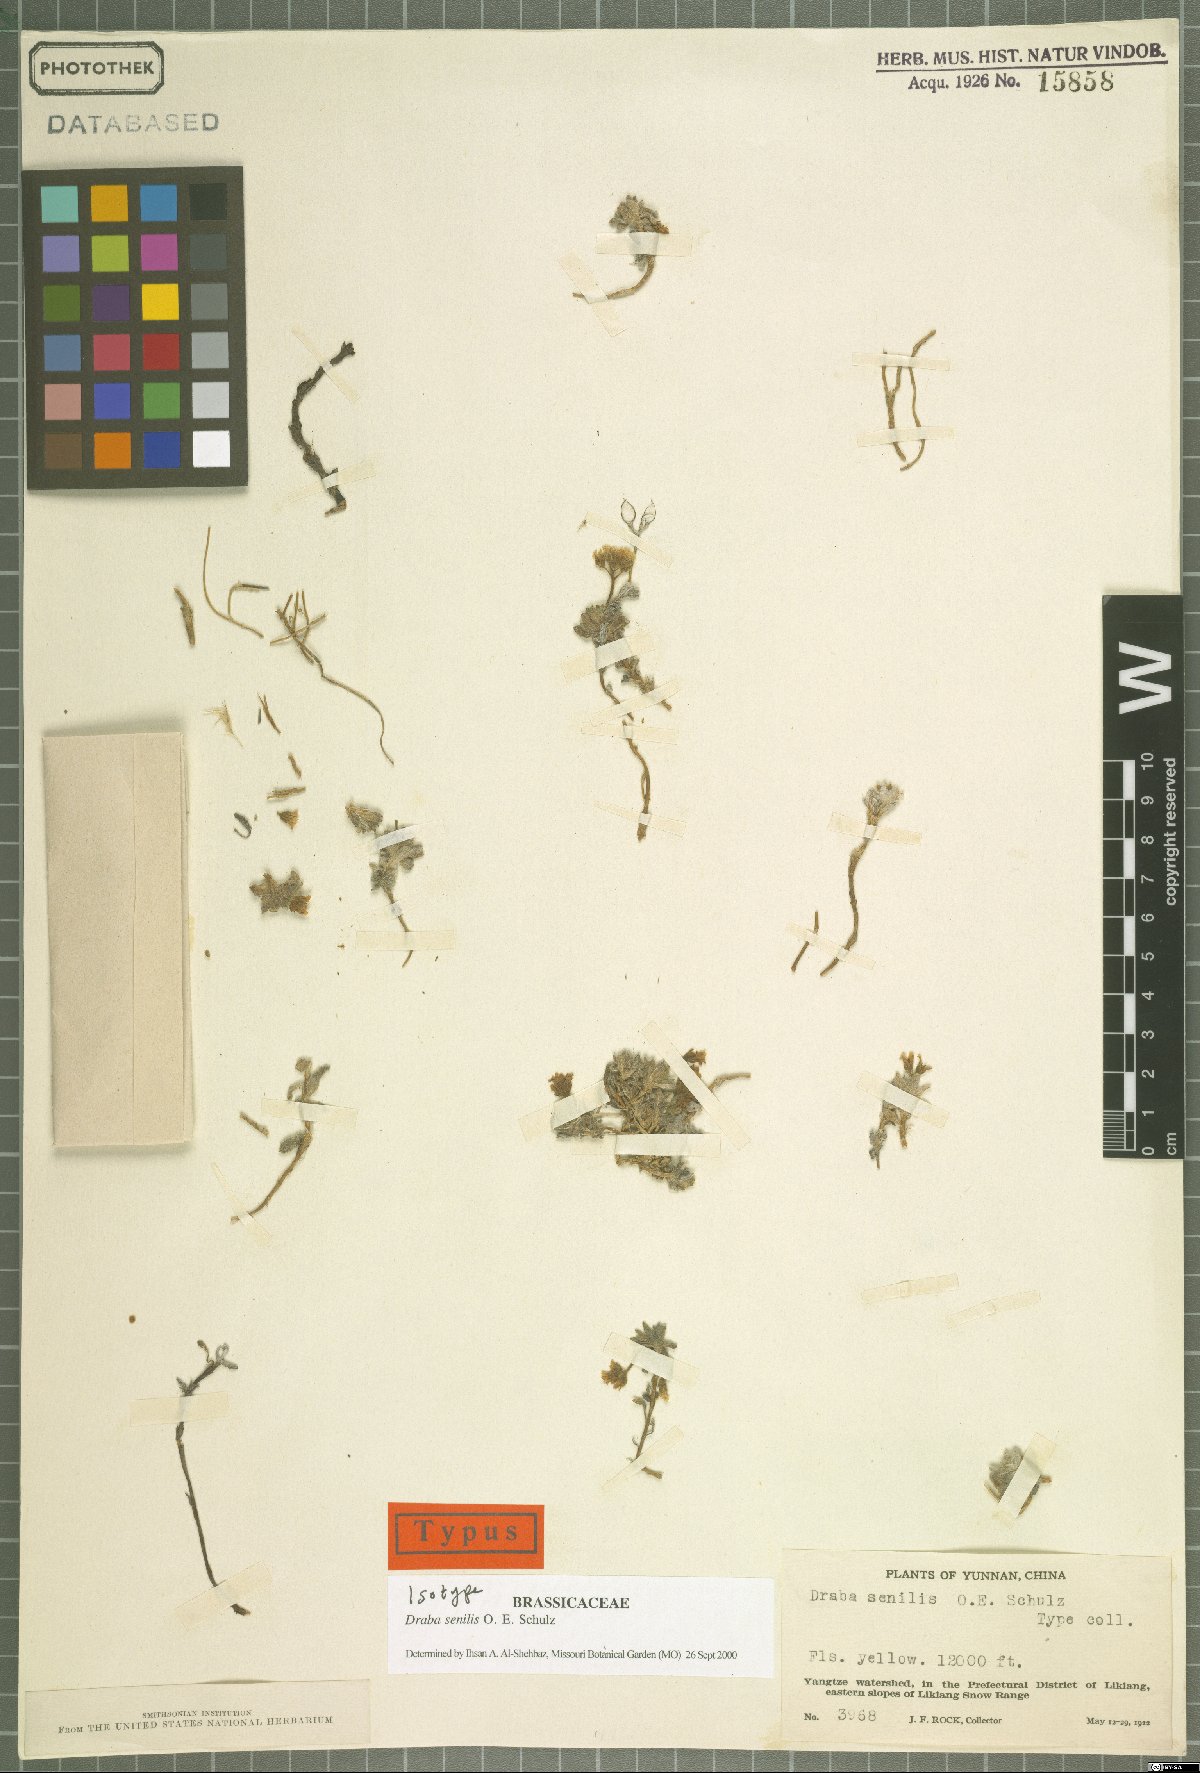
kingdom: Plantae
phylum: Tracheophyta
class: Magnoliopsida
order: Brassicales
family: Brassicaceae
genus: Draba
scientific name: Draba senilis
